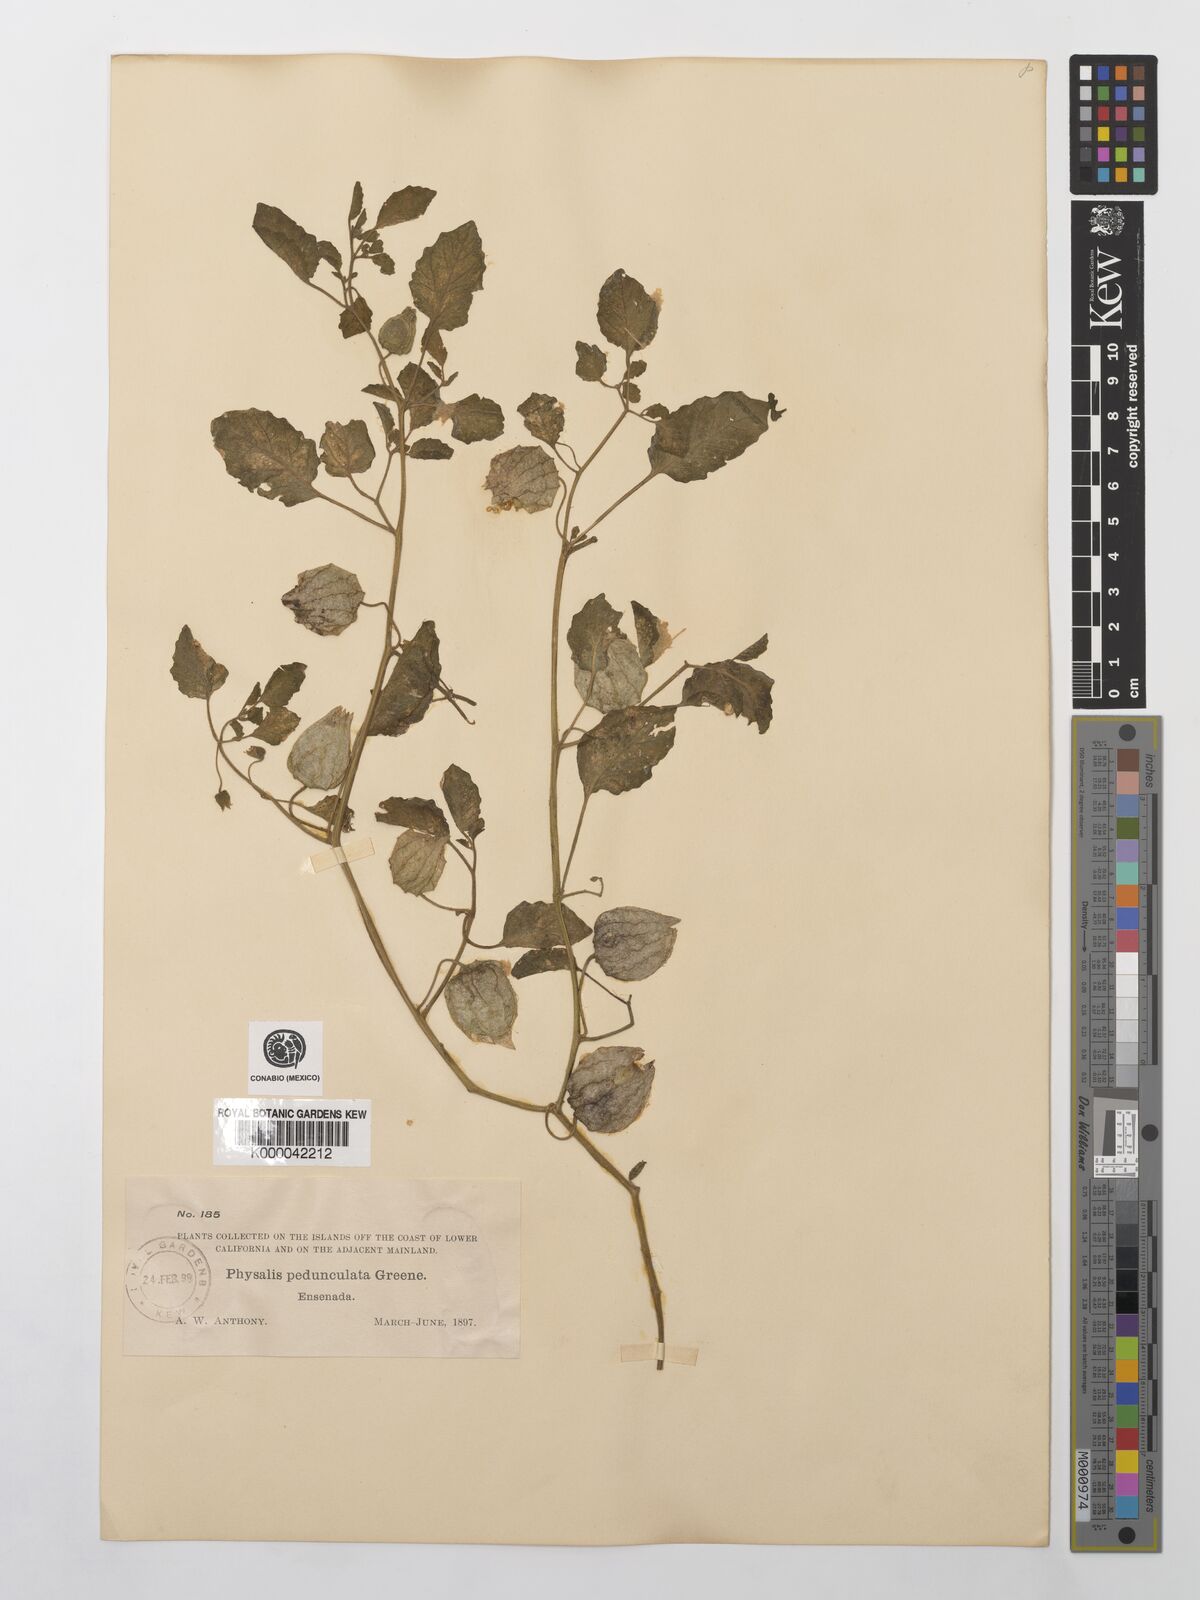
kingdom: Plantae
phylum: Tracheophyta
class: Magnoliopsida
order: Solanales
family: Solanaceae
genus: Physalis
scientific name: Physalis crassifolia
